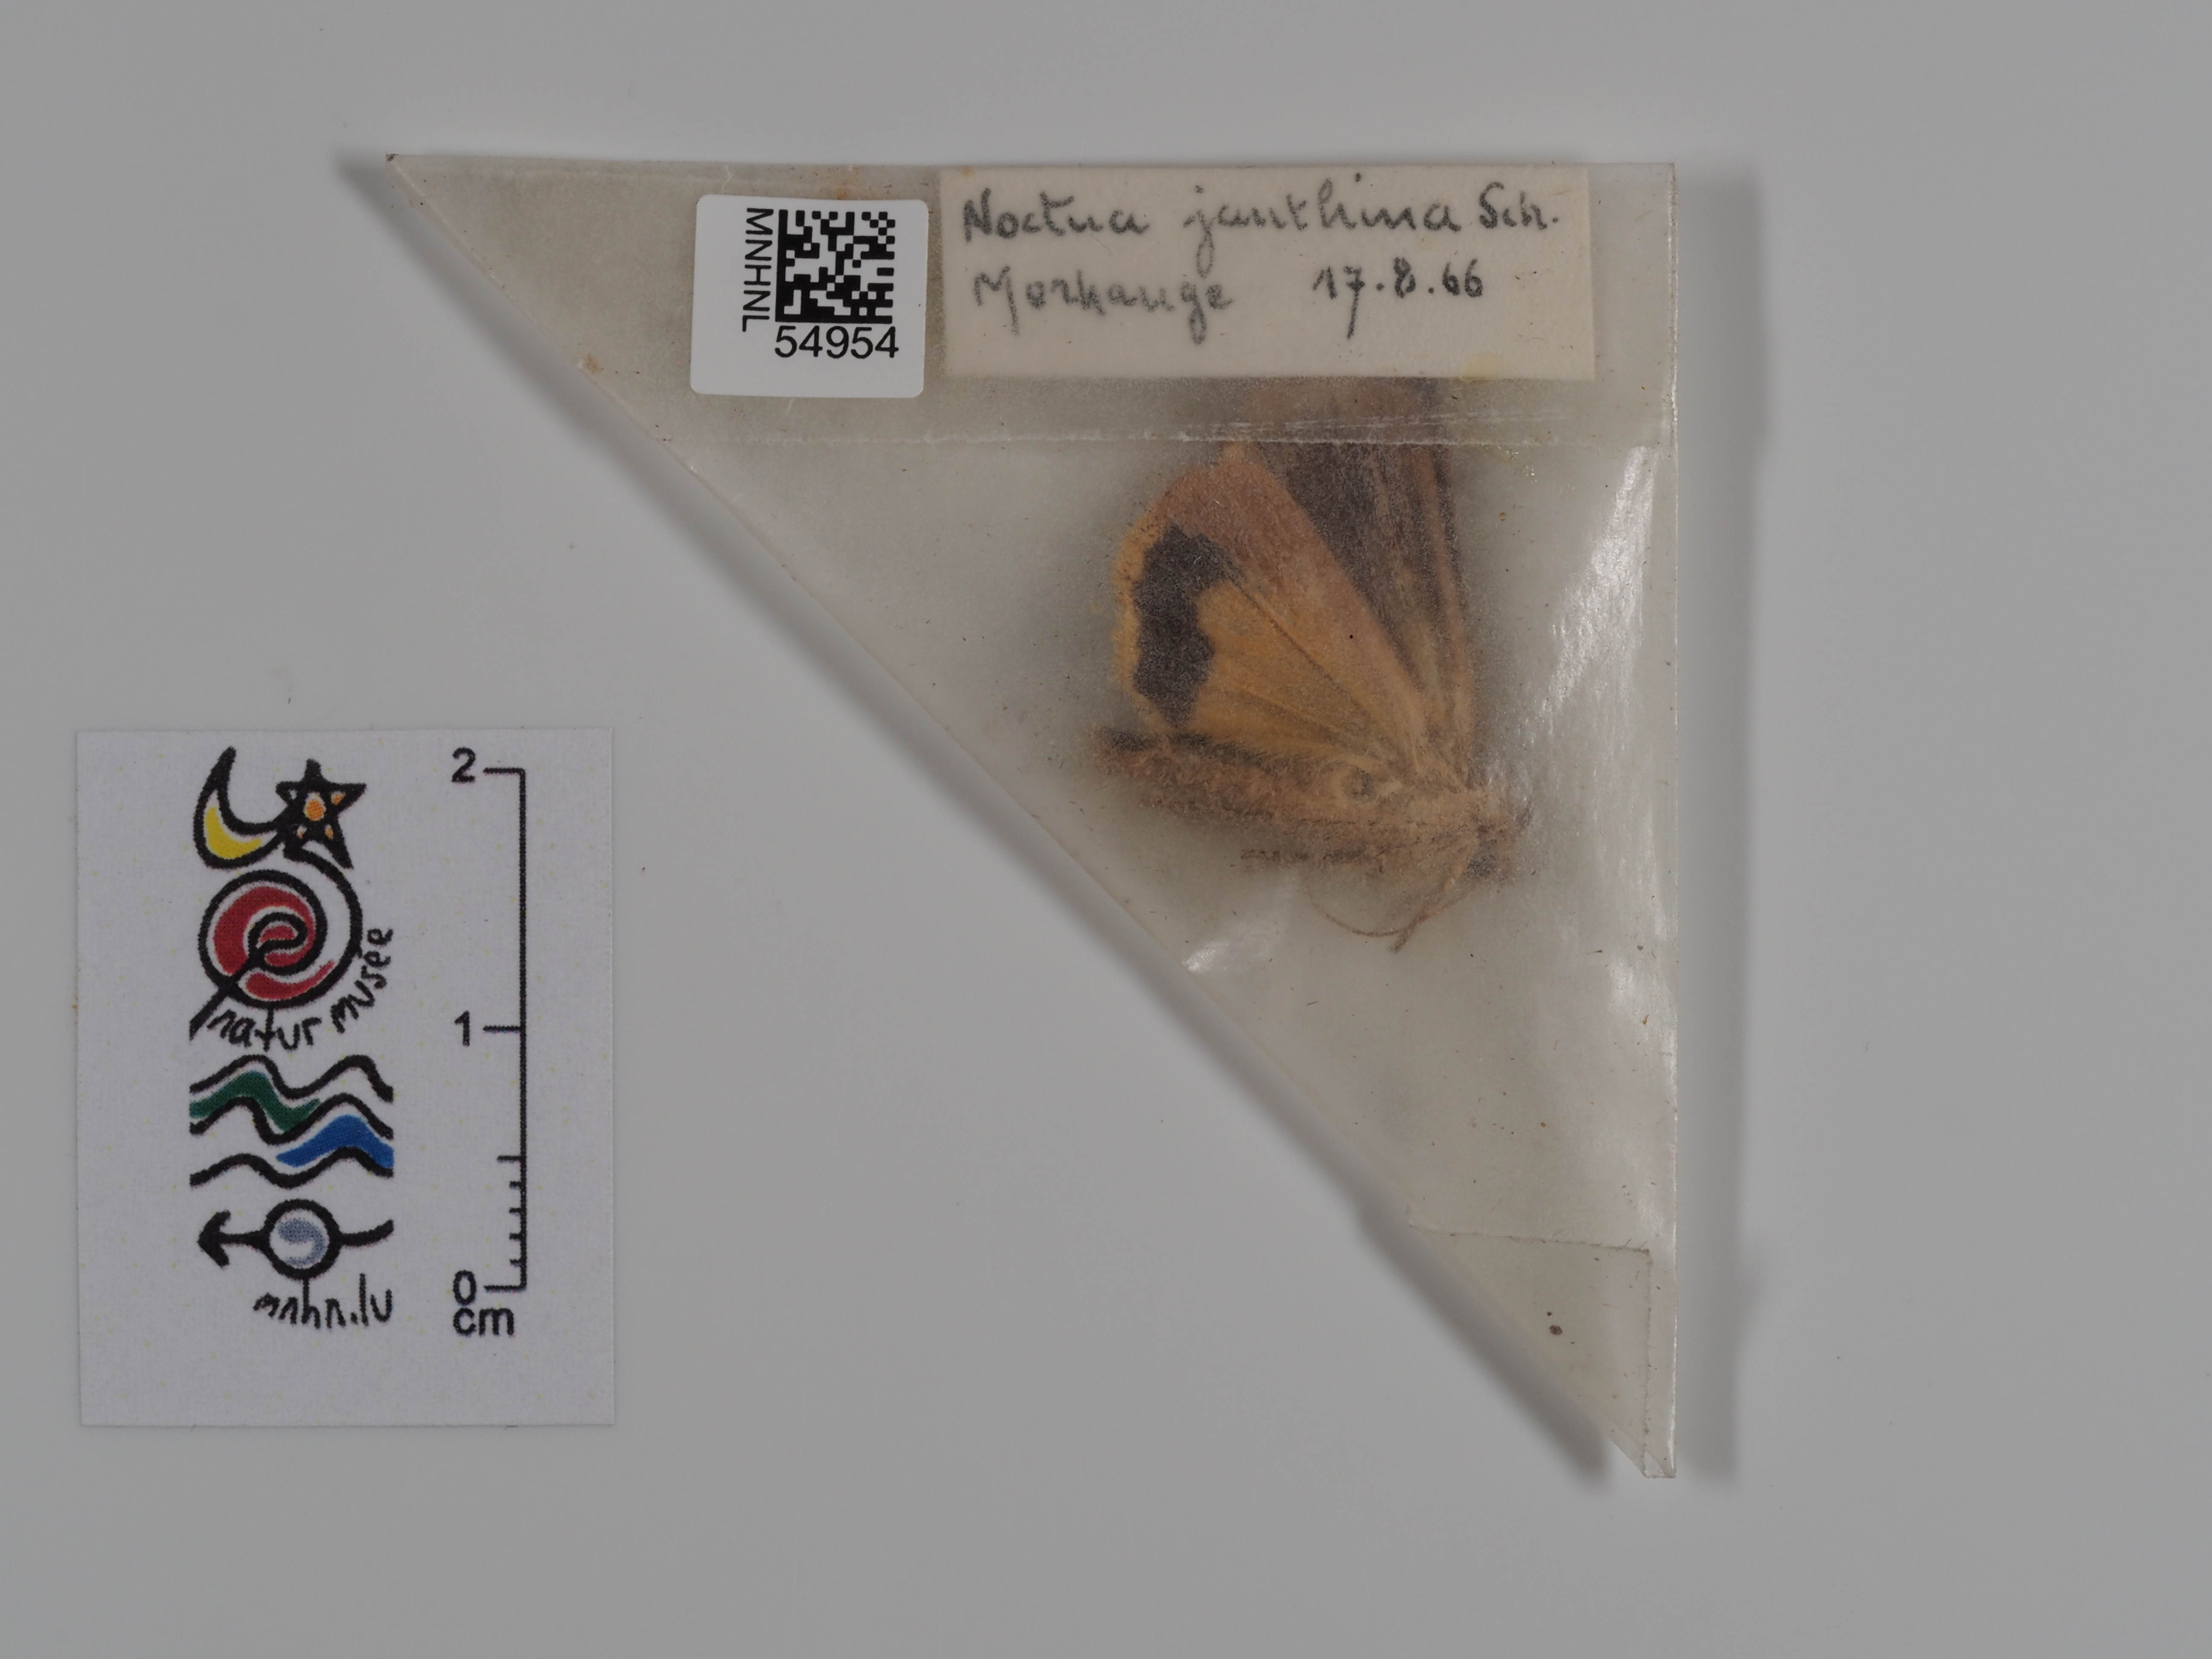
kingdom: Animalia
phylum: Arthropoda
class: Insecta
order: Lepidoptera
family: Noctuidae
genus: Noctua
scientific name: Noctua janthina
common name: Langmaid's yellow underwing
